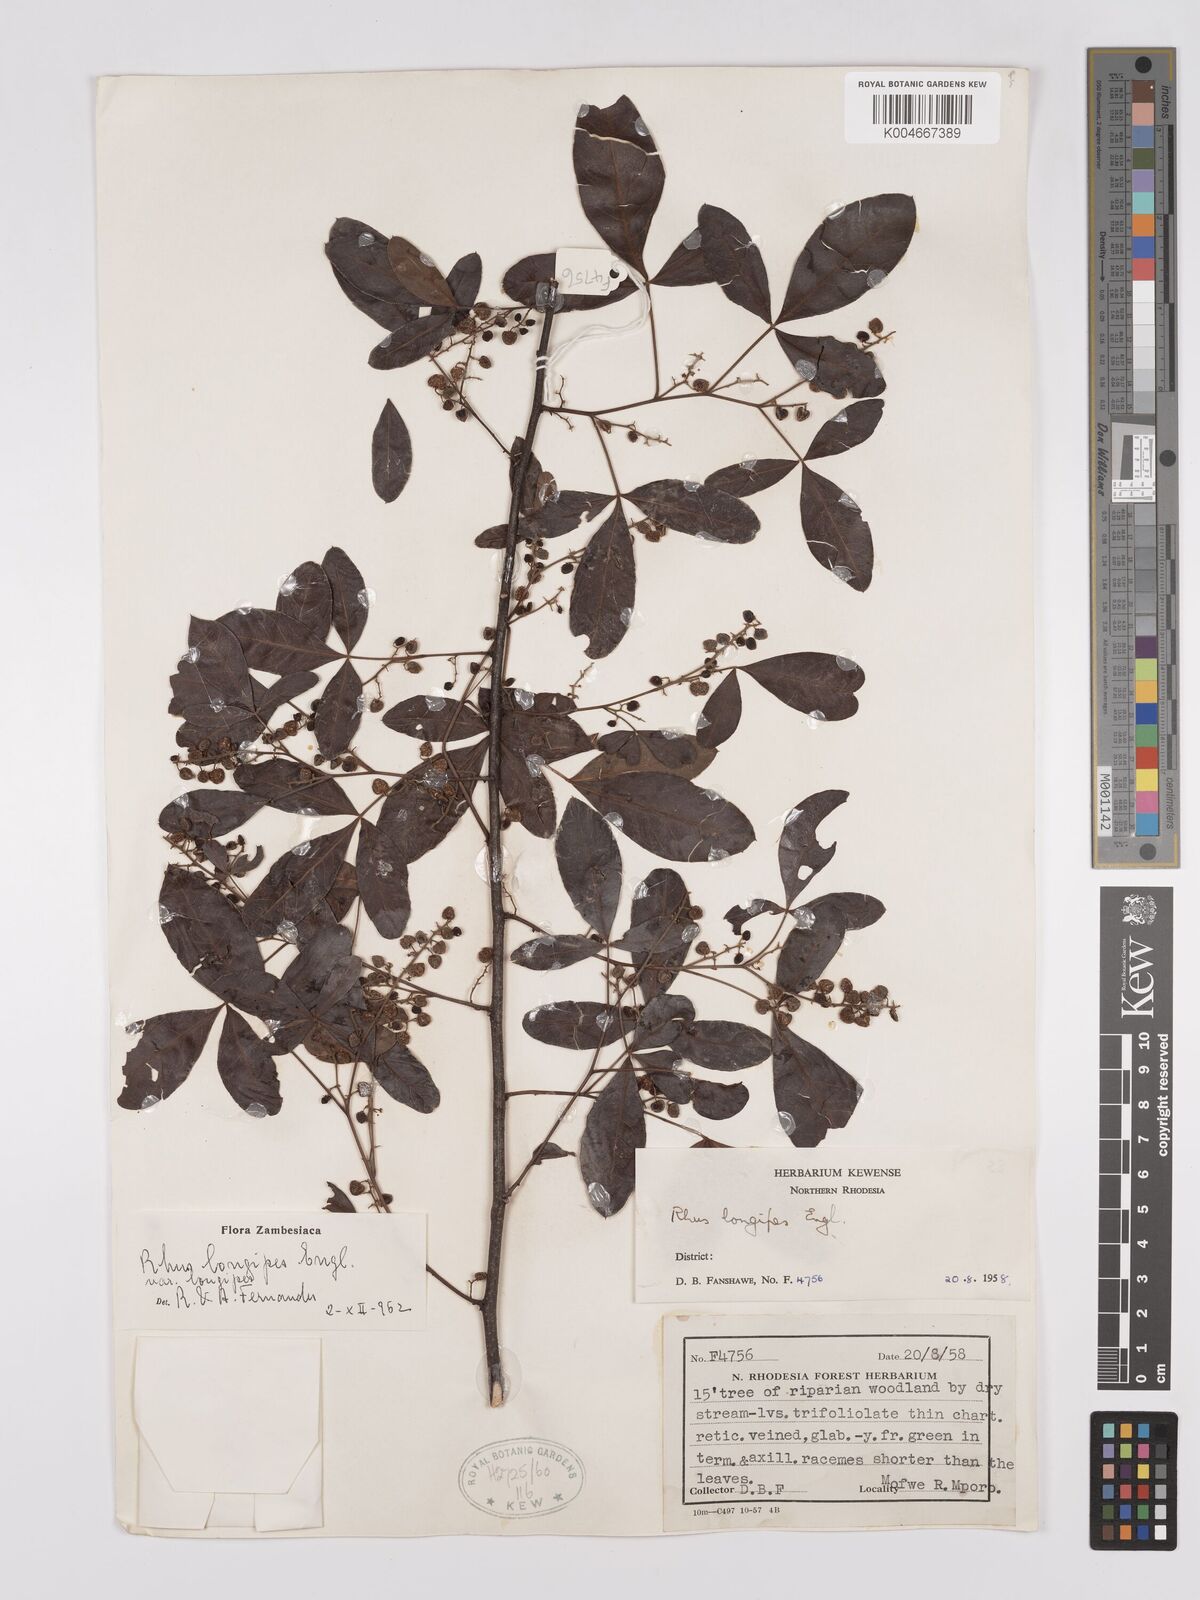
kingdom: Plantae
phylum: Tracheophyta
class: Magnoliopsida
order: Sapindales
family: Anacardiaceae
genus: Searsia
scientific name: Searsia longipes
